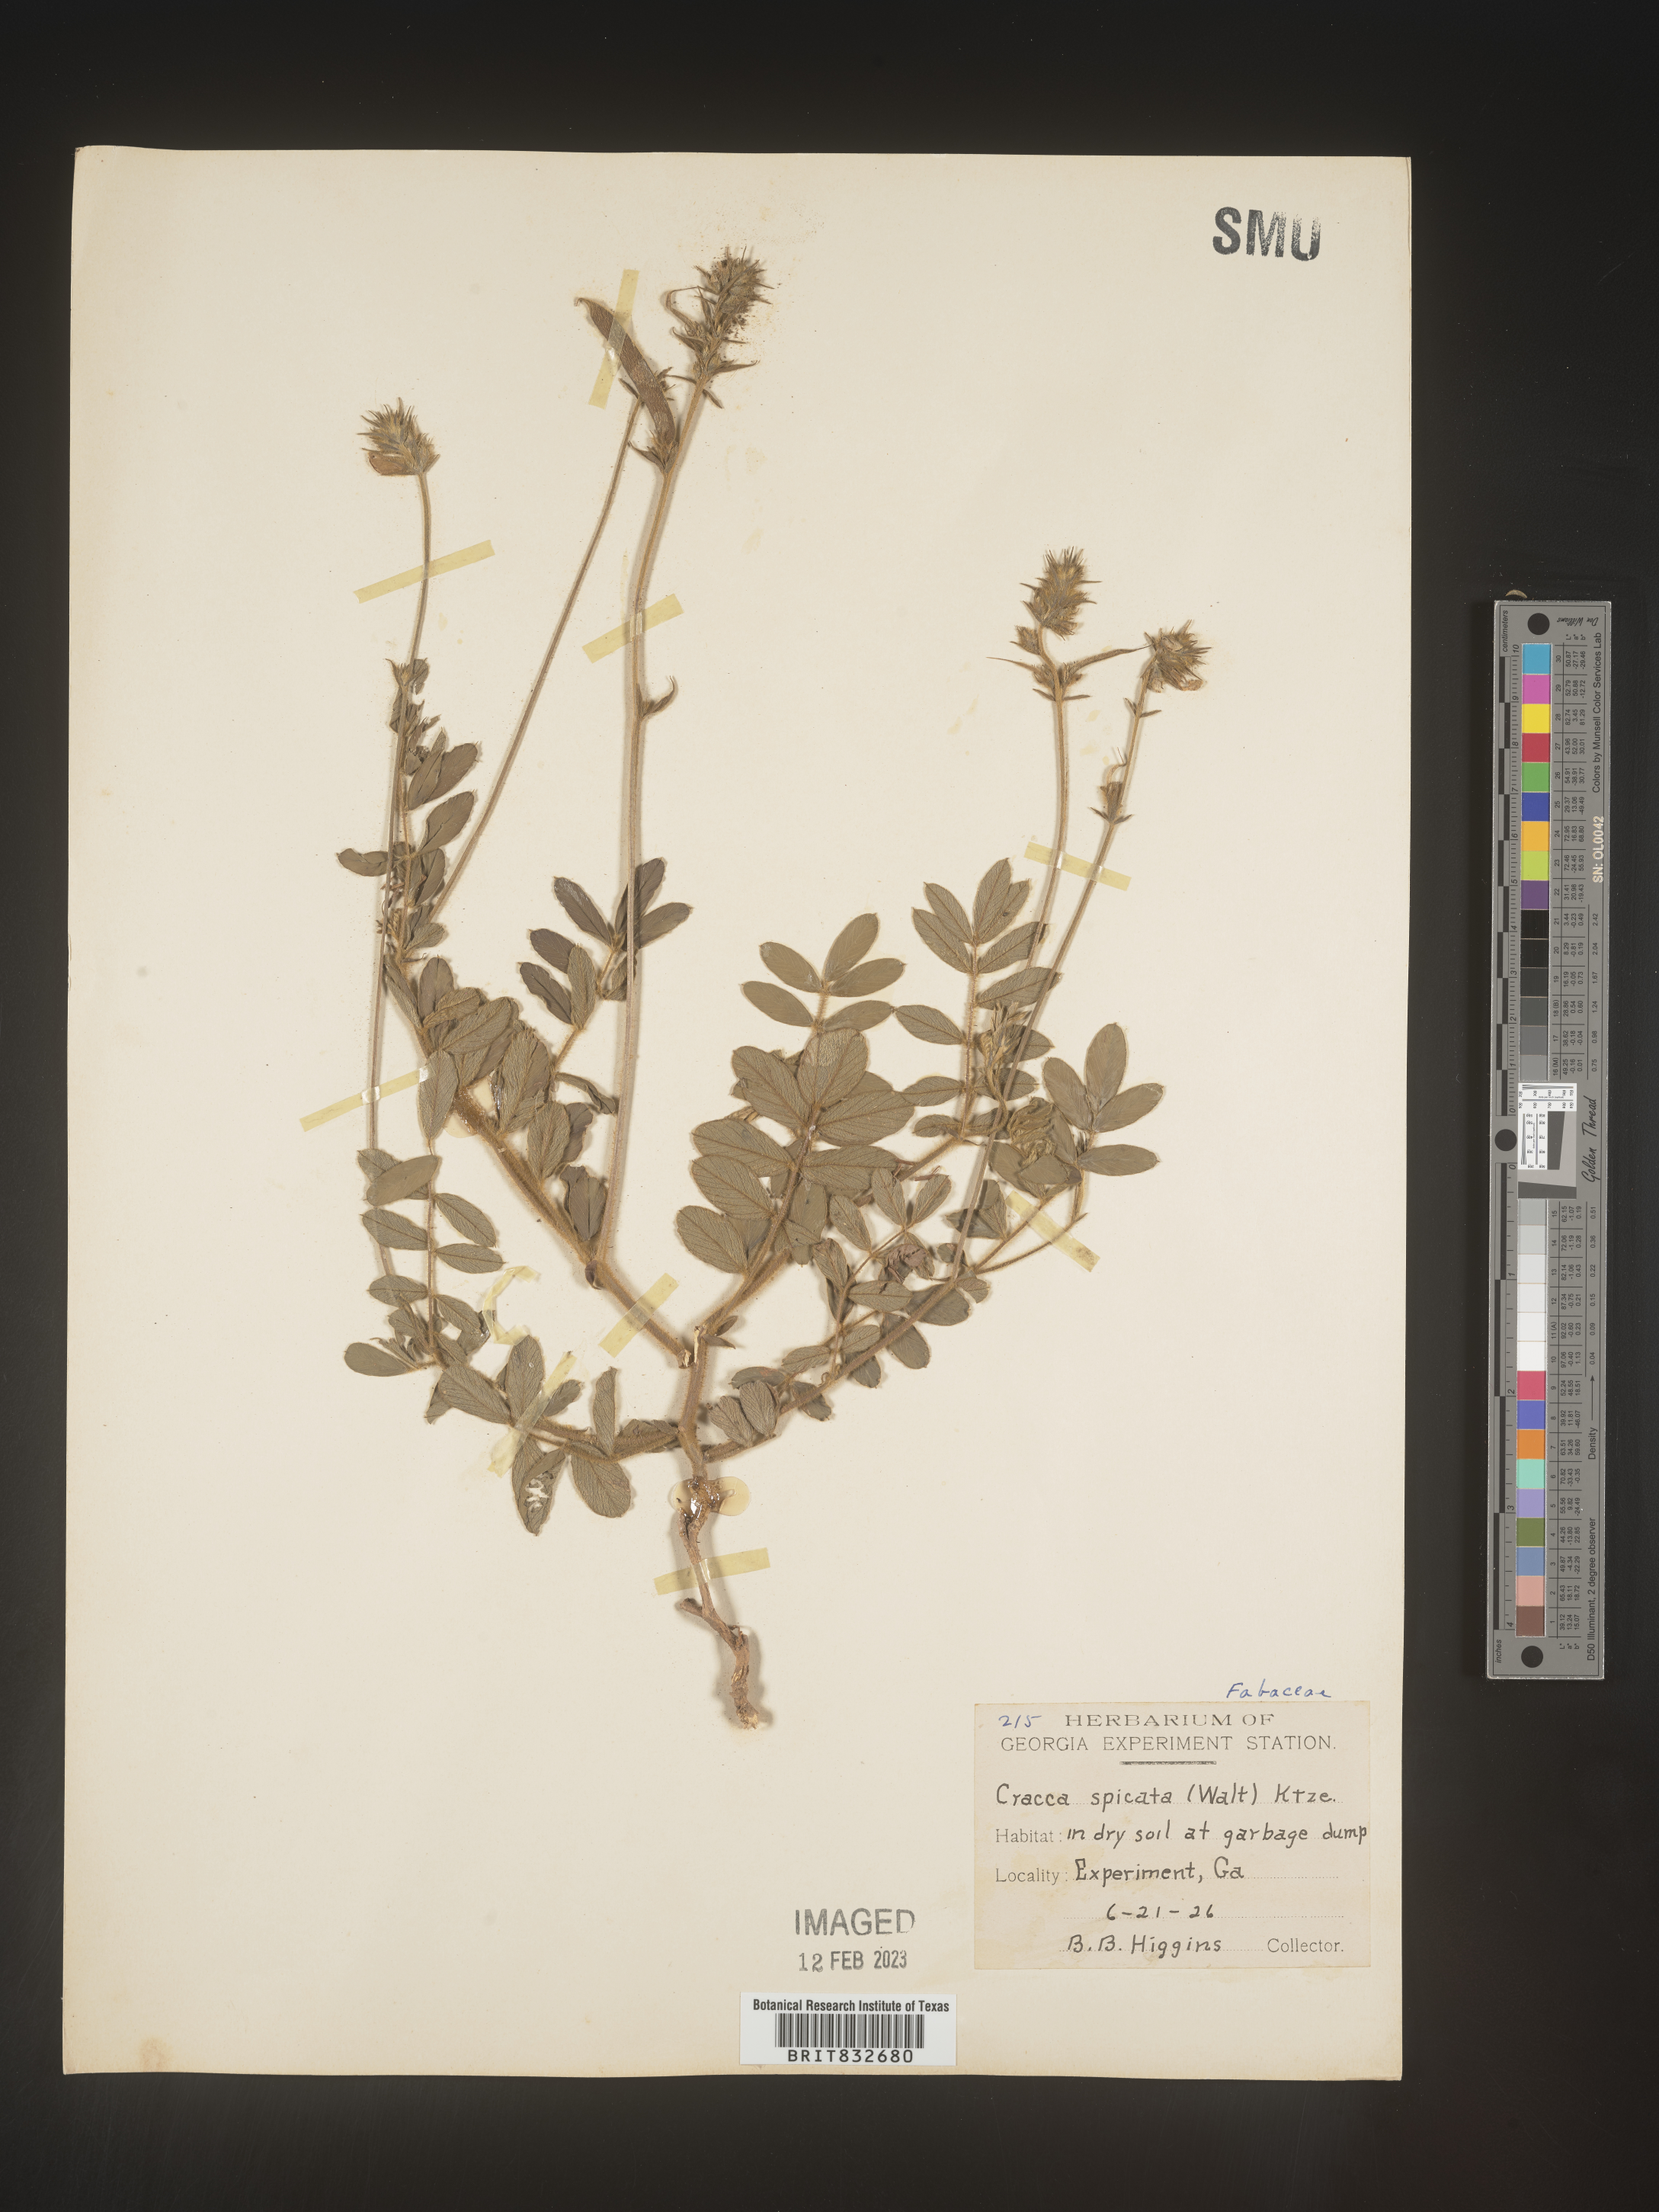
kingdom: Plantae
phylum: Tracheophyta
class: Magnoliopsida
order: Fabales
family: Fabaceae
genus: Tephrosia
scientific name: Tephrosia spicata
